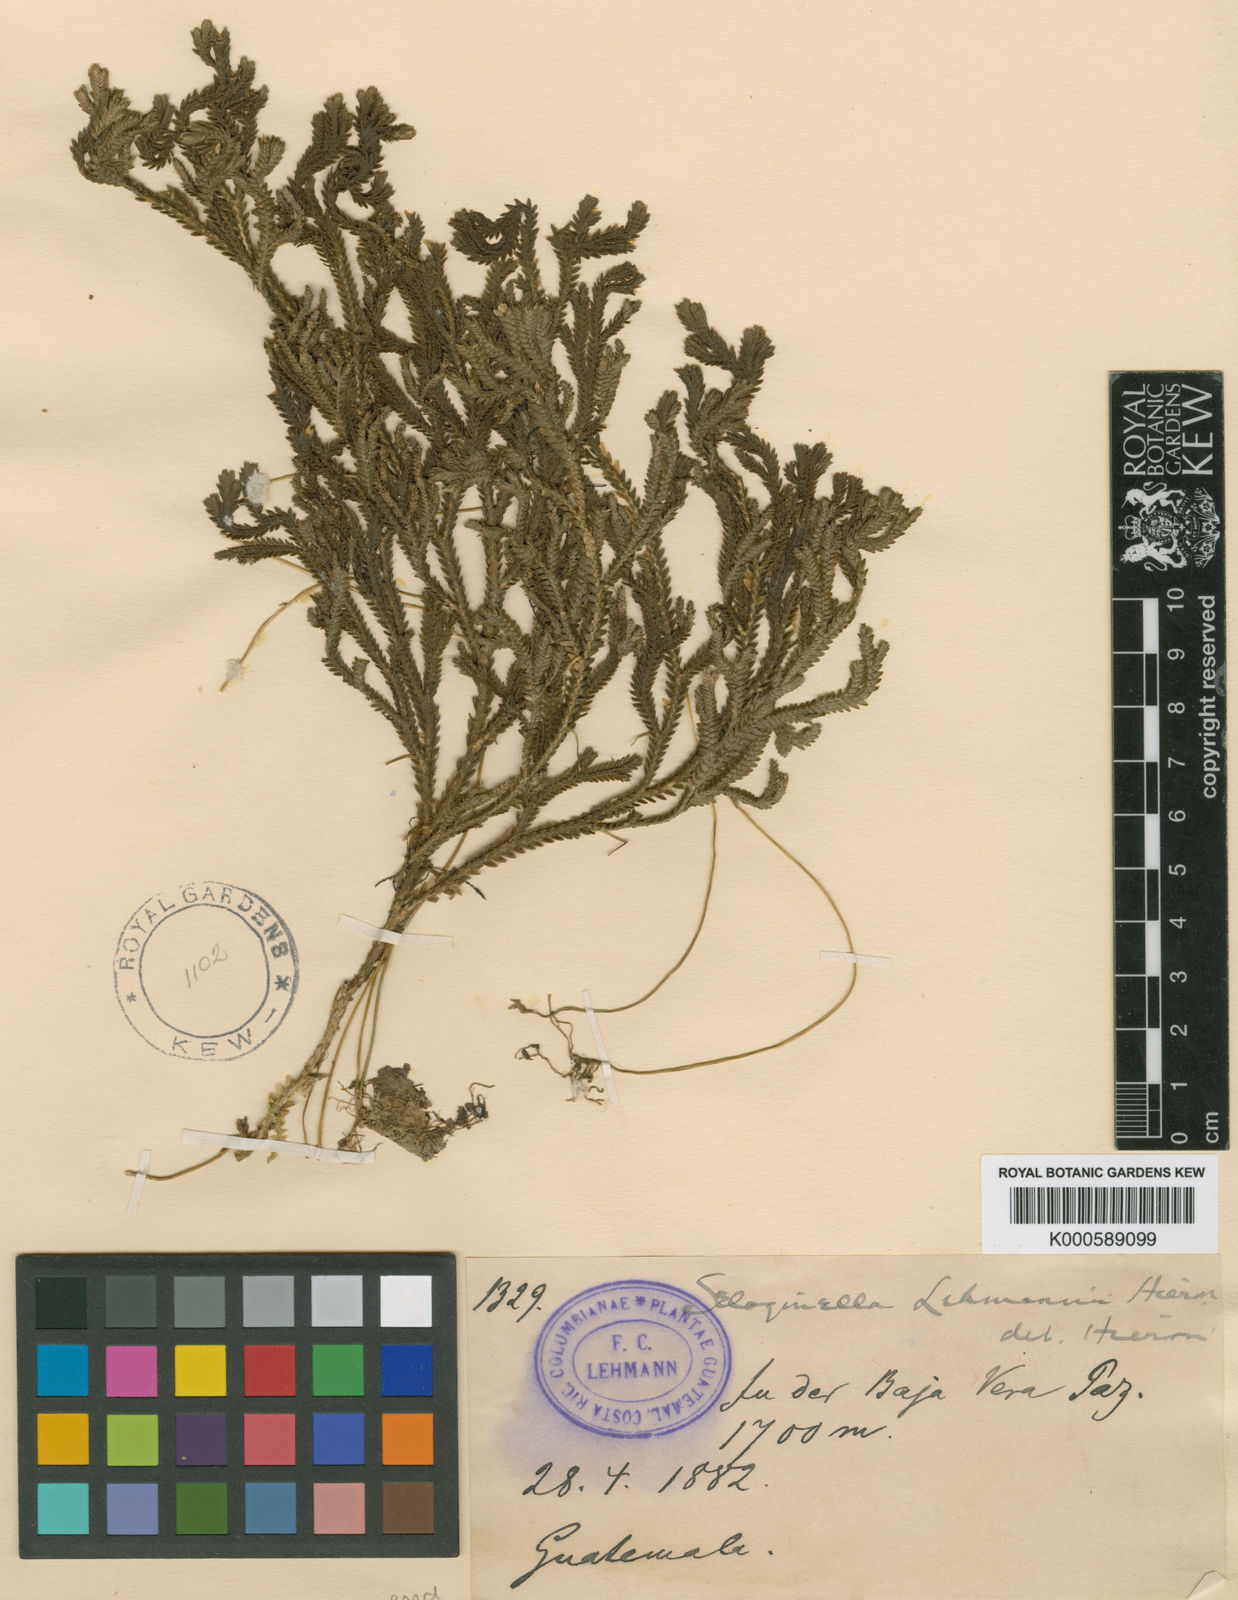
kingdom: Plantae
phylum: Tracheophyta
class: Lycopodiopsida
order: Selaginellales
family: Selaginellaceae
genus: Selaginella
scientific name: Selaginella guatemalensis
